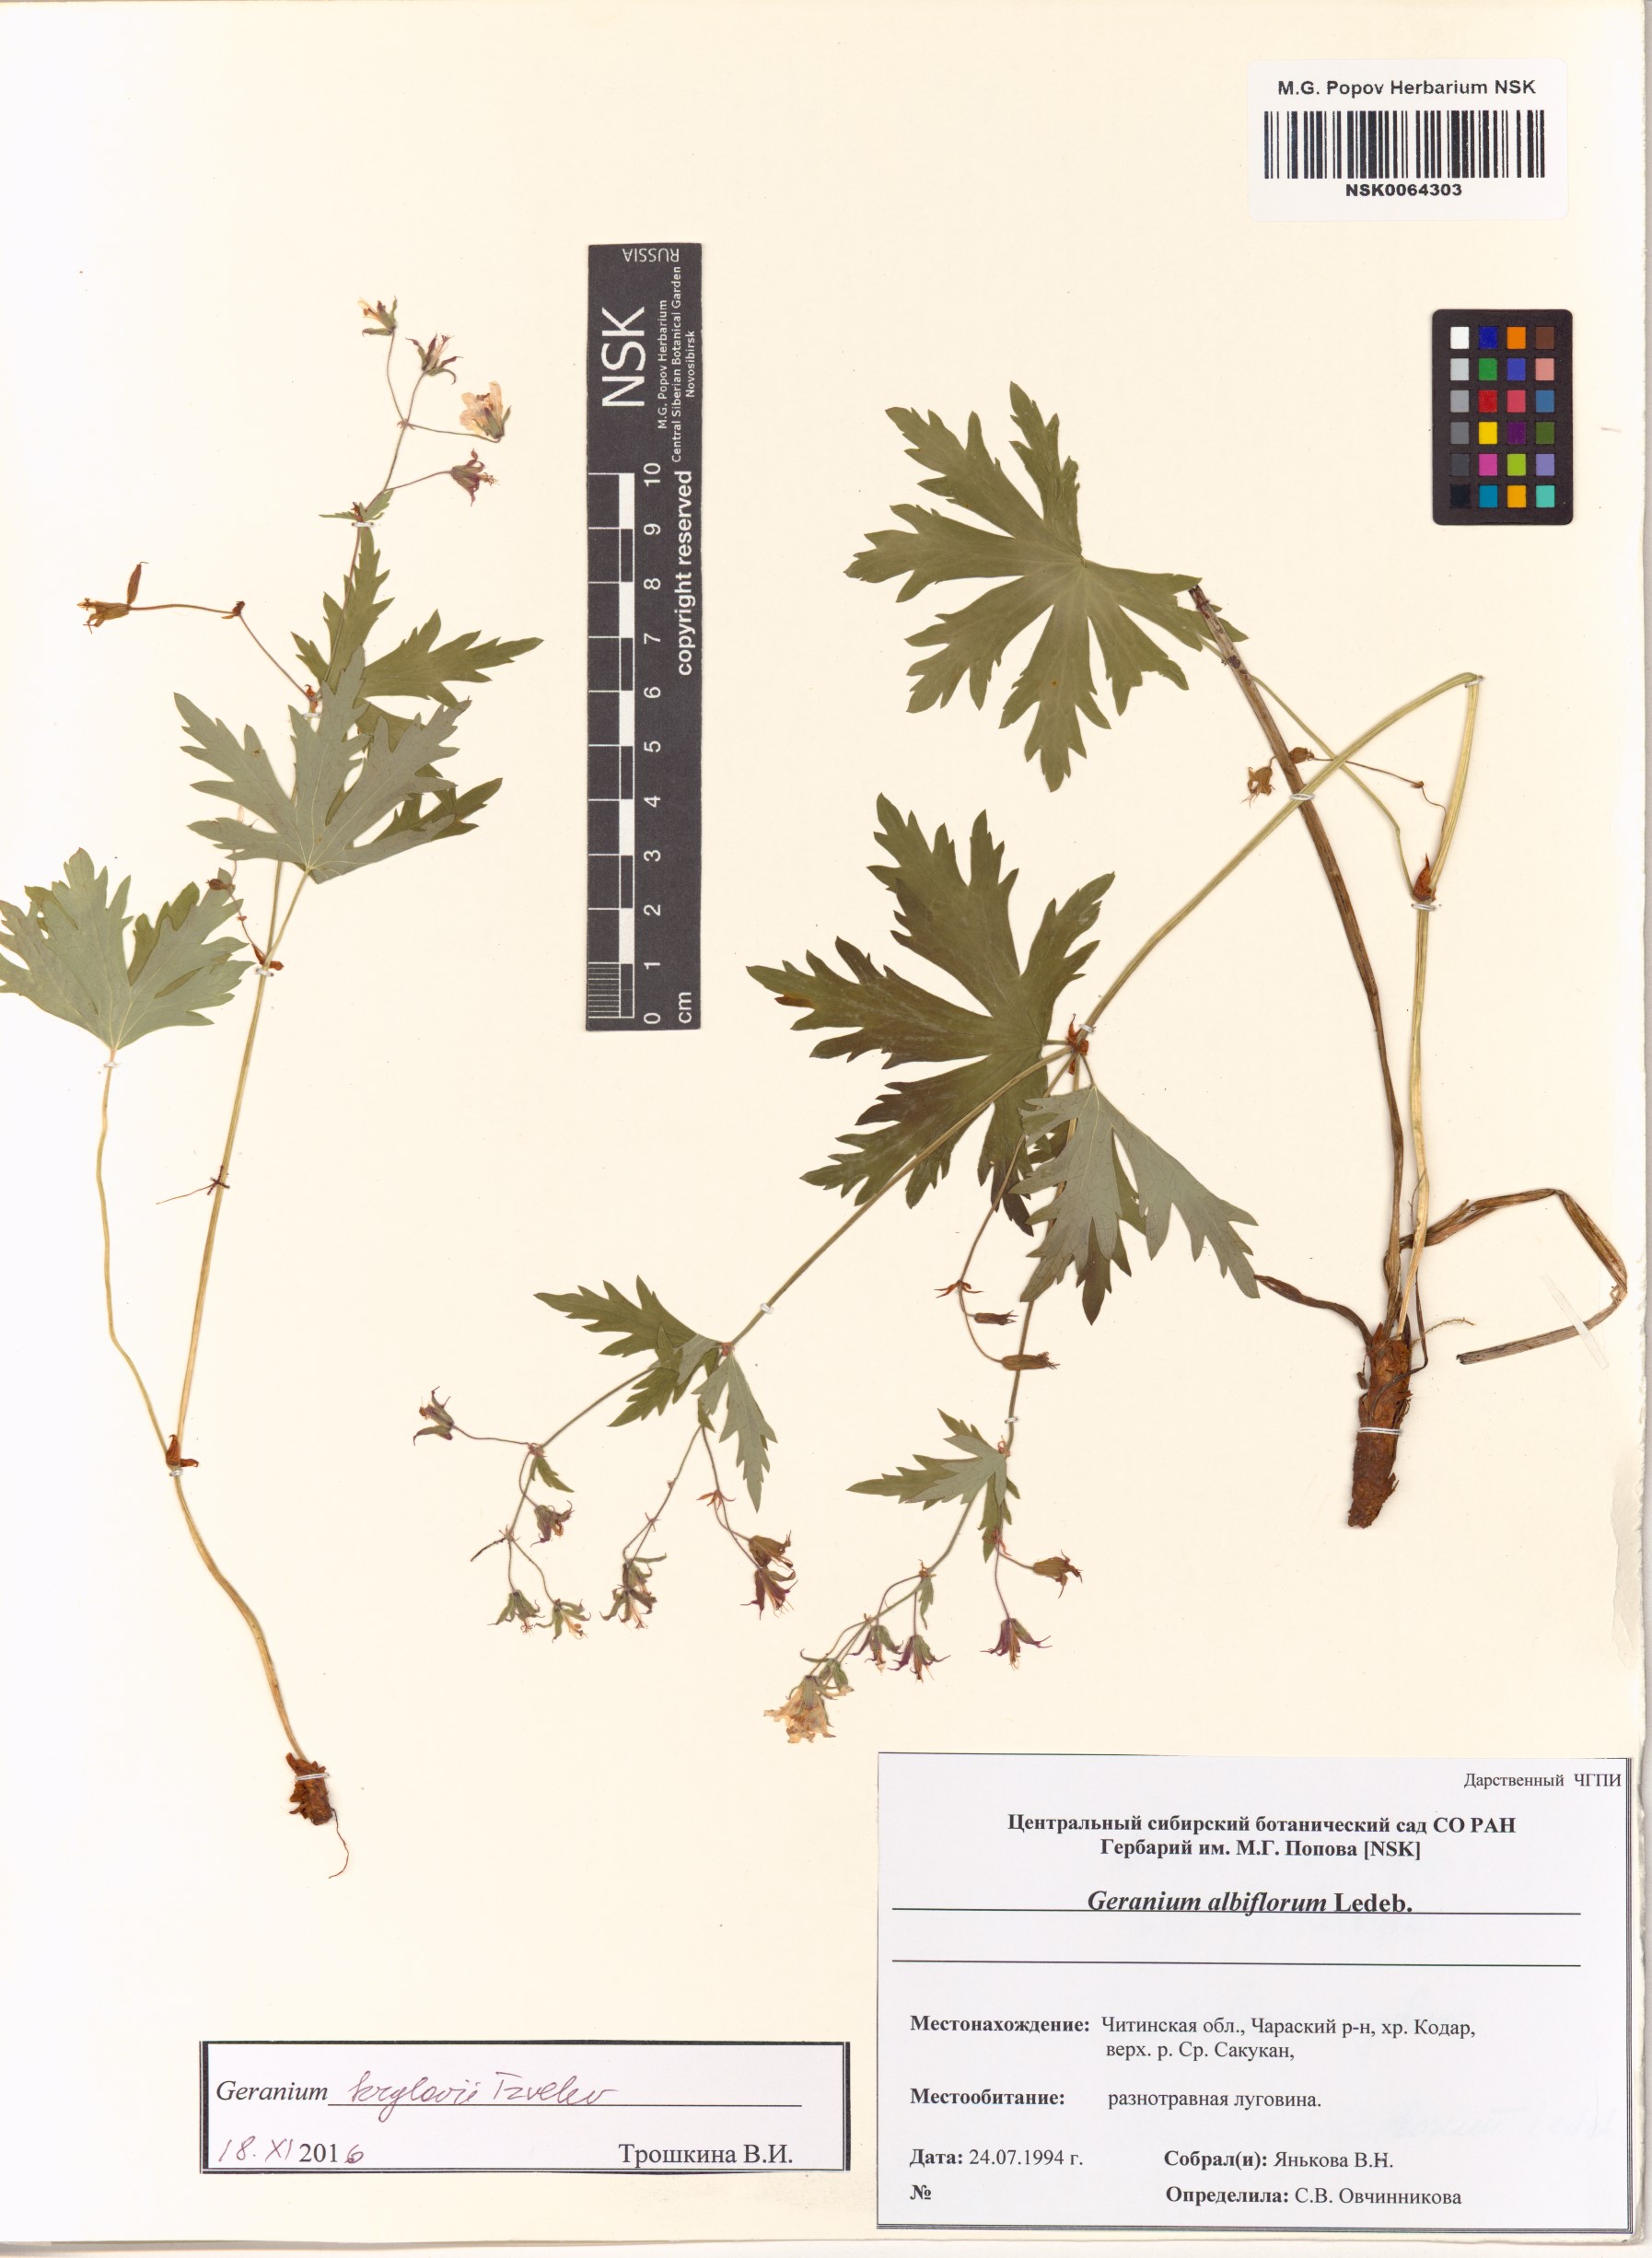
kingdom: Plantae
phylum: Tracheophyta
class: Magnoliopsida
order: Geraniales
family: Geraniaceae
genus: Geranium
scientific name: Geranium sylvaticum
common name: Wood crane's-bill
